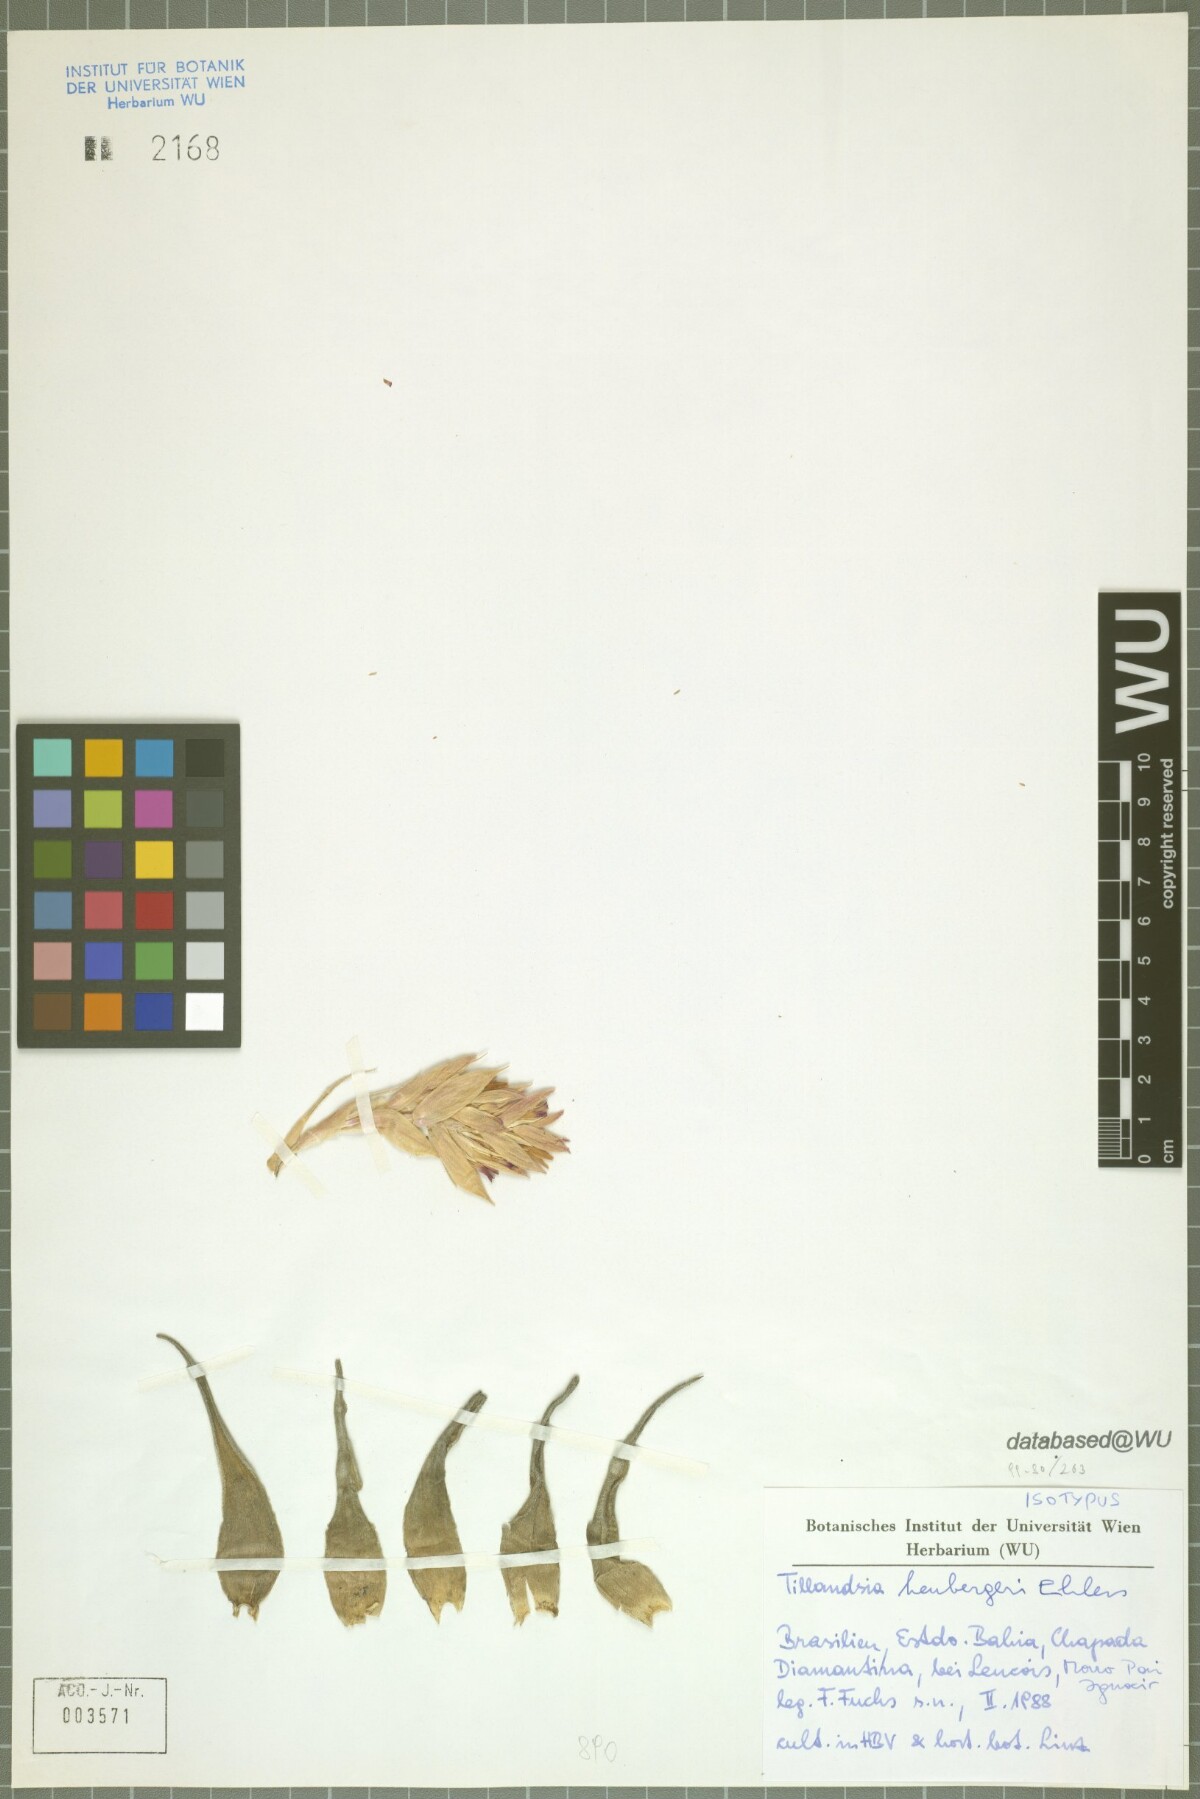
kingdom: Plantae
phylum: Tracheophyta
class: Liliopsida
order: Poales
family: Bromeliaceae
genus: Tillandsia
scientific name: Tillandsia heubergeri
